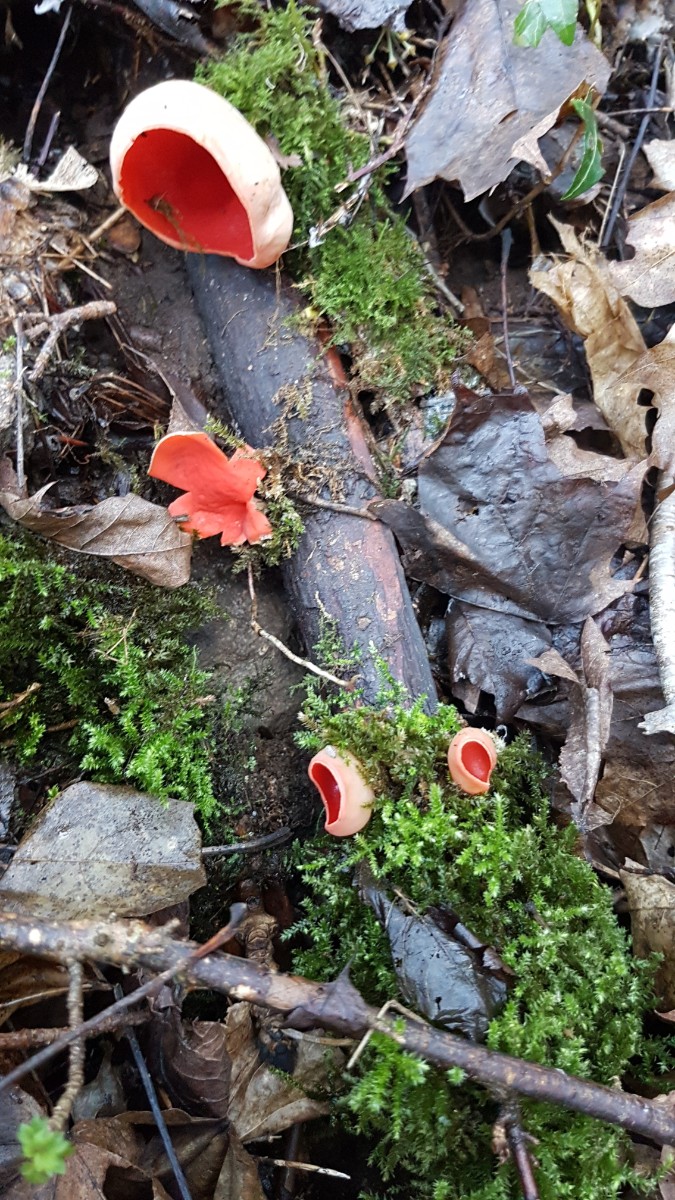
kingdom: Fungi
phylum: Ascomycota
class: Pezizomycetes
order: Pezizales
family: Sarcoscyphaceae
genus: Sarcoscypha
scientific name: Sarcoscypha austriaca
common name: krølhåret pragtbæger
